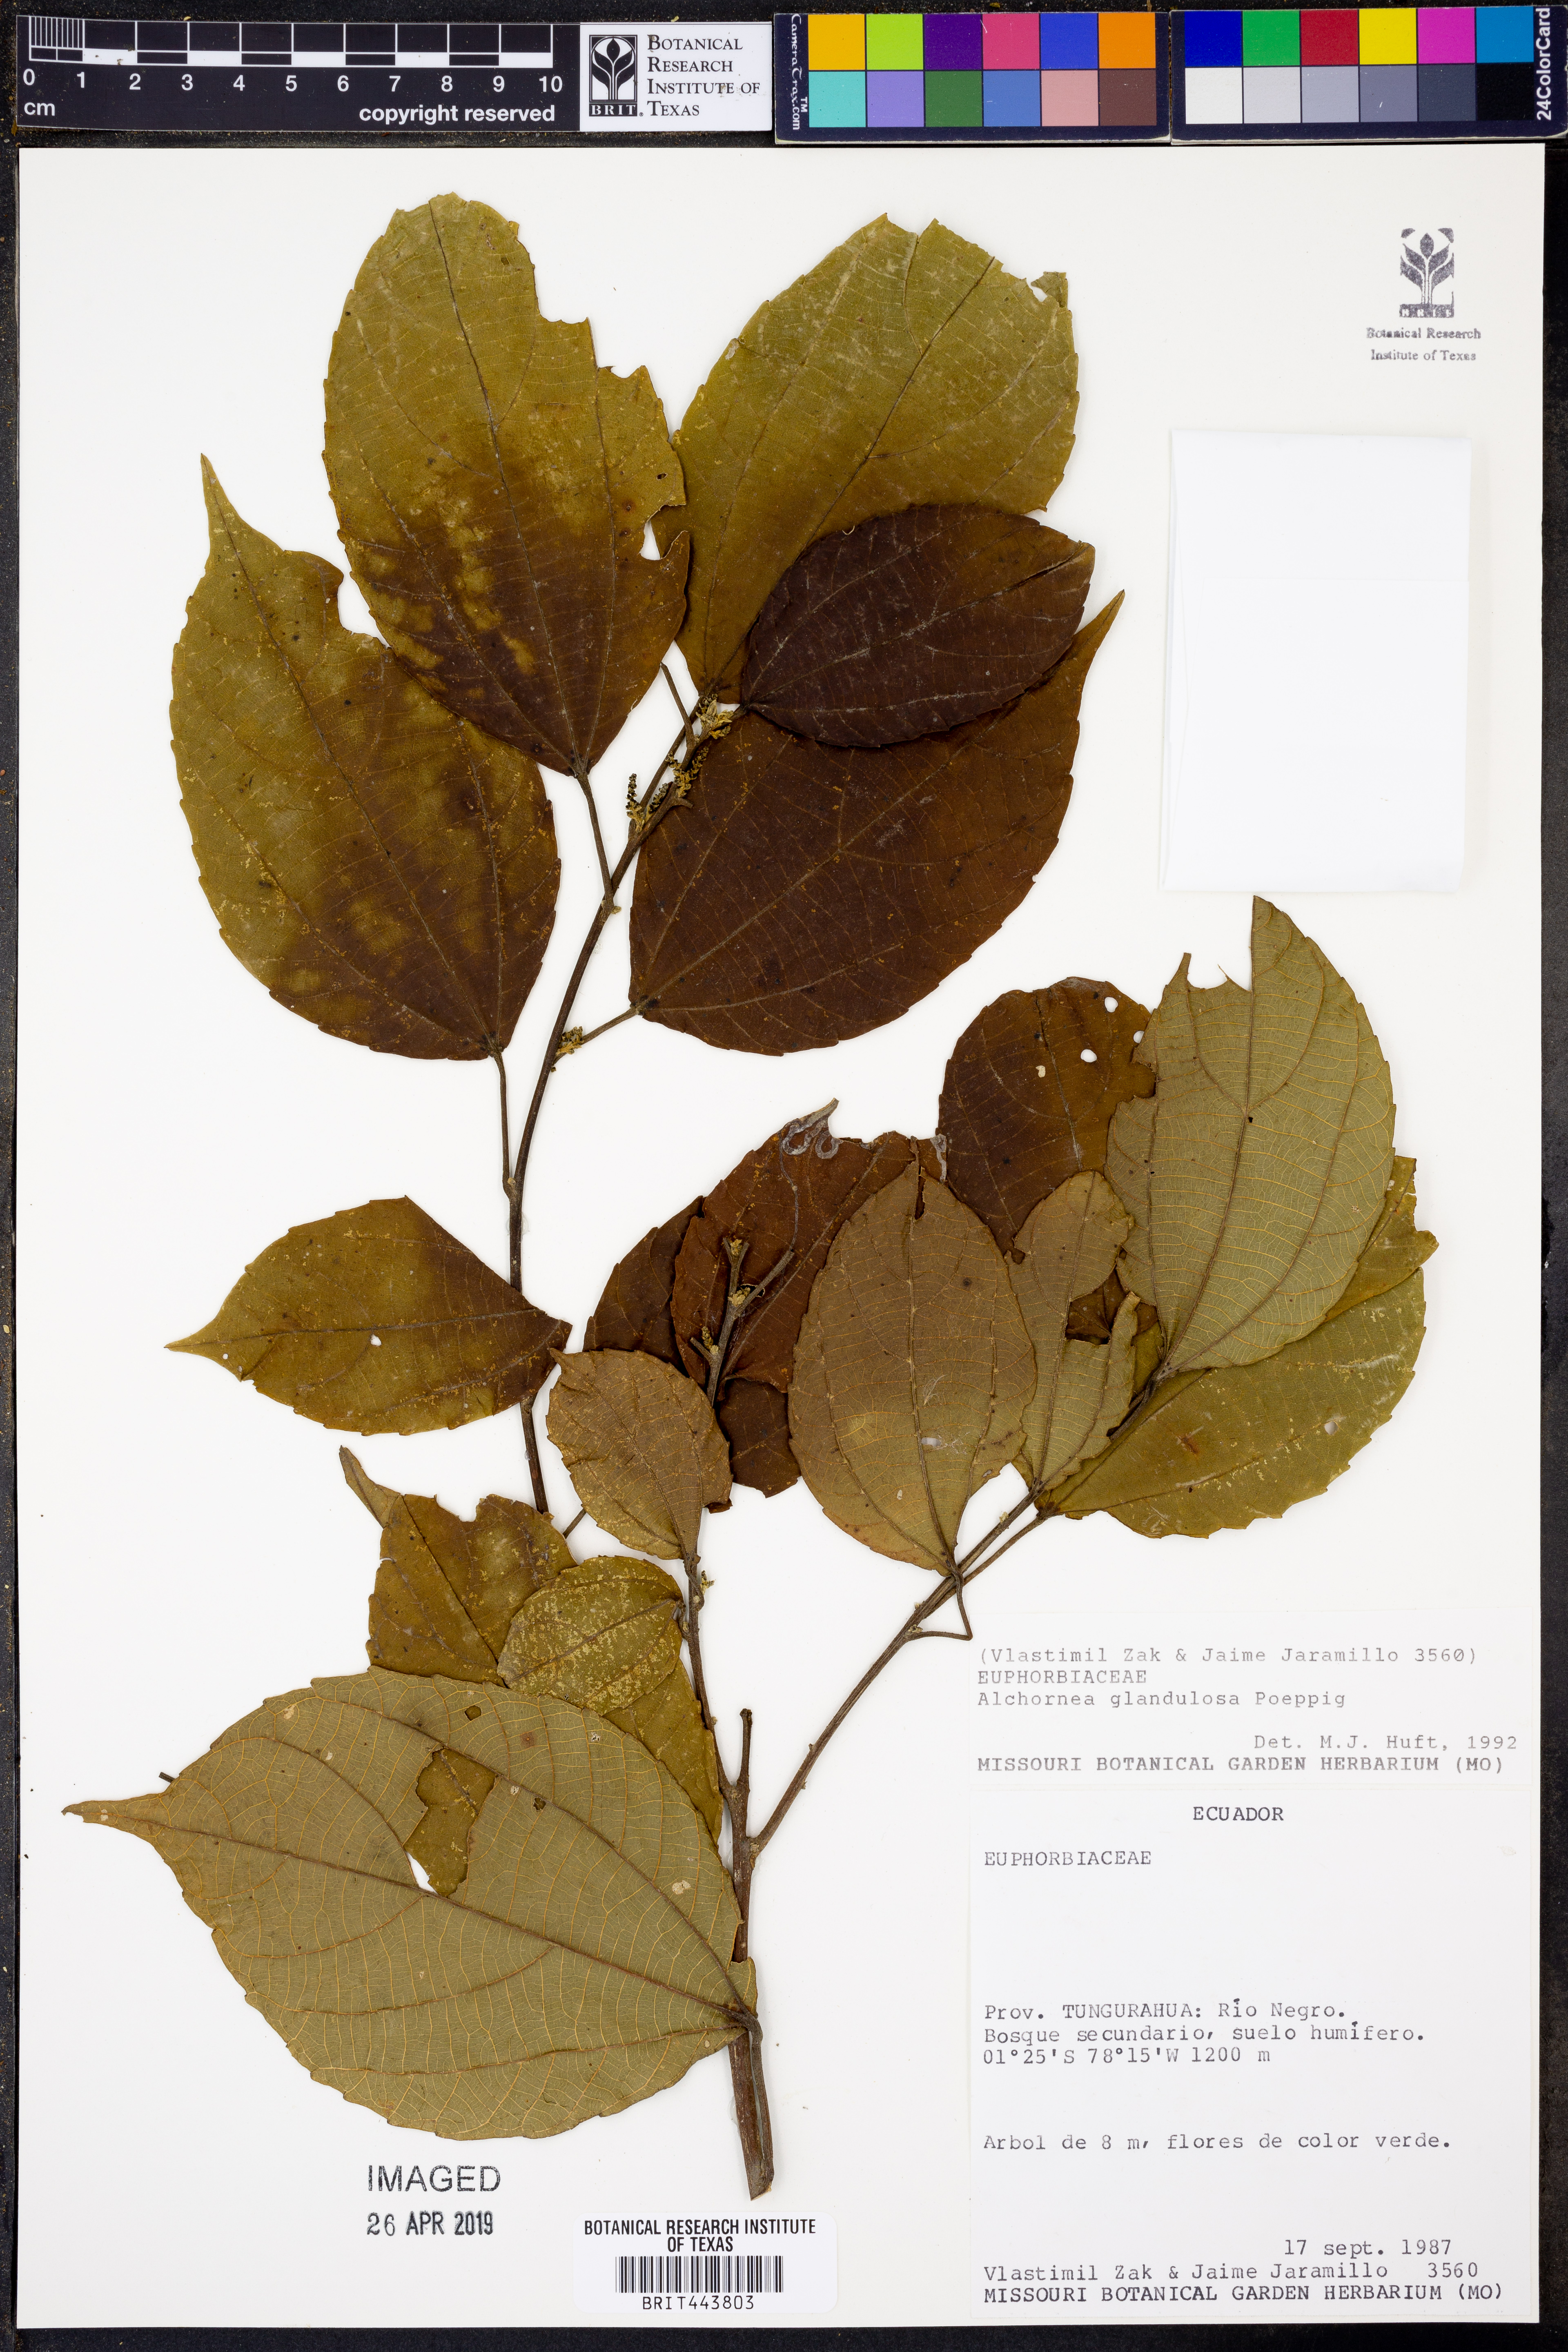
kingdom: Plantae
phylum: Tracheophyta
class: Magnoliopsida
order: Malpighiales
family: Euphorbiaceae
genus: Alchornea
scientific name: Alchornea glandulosa
